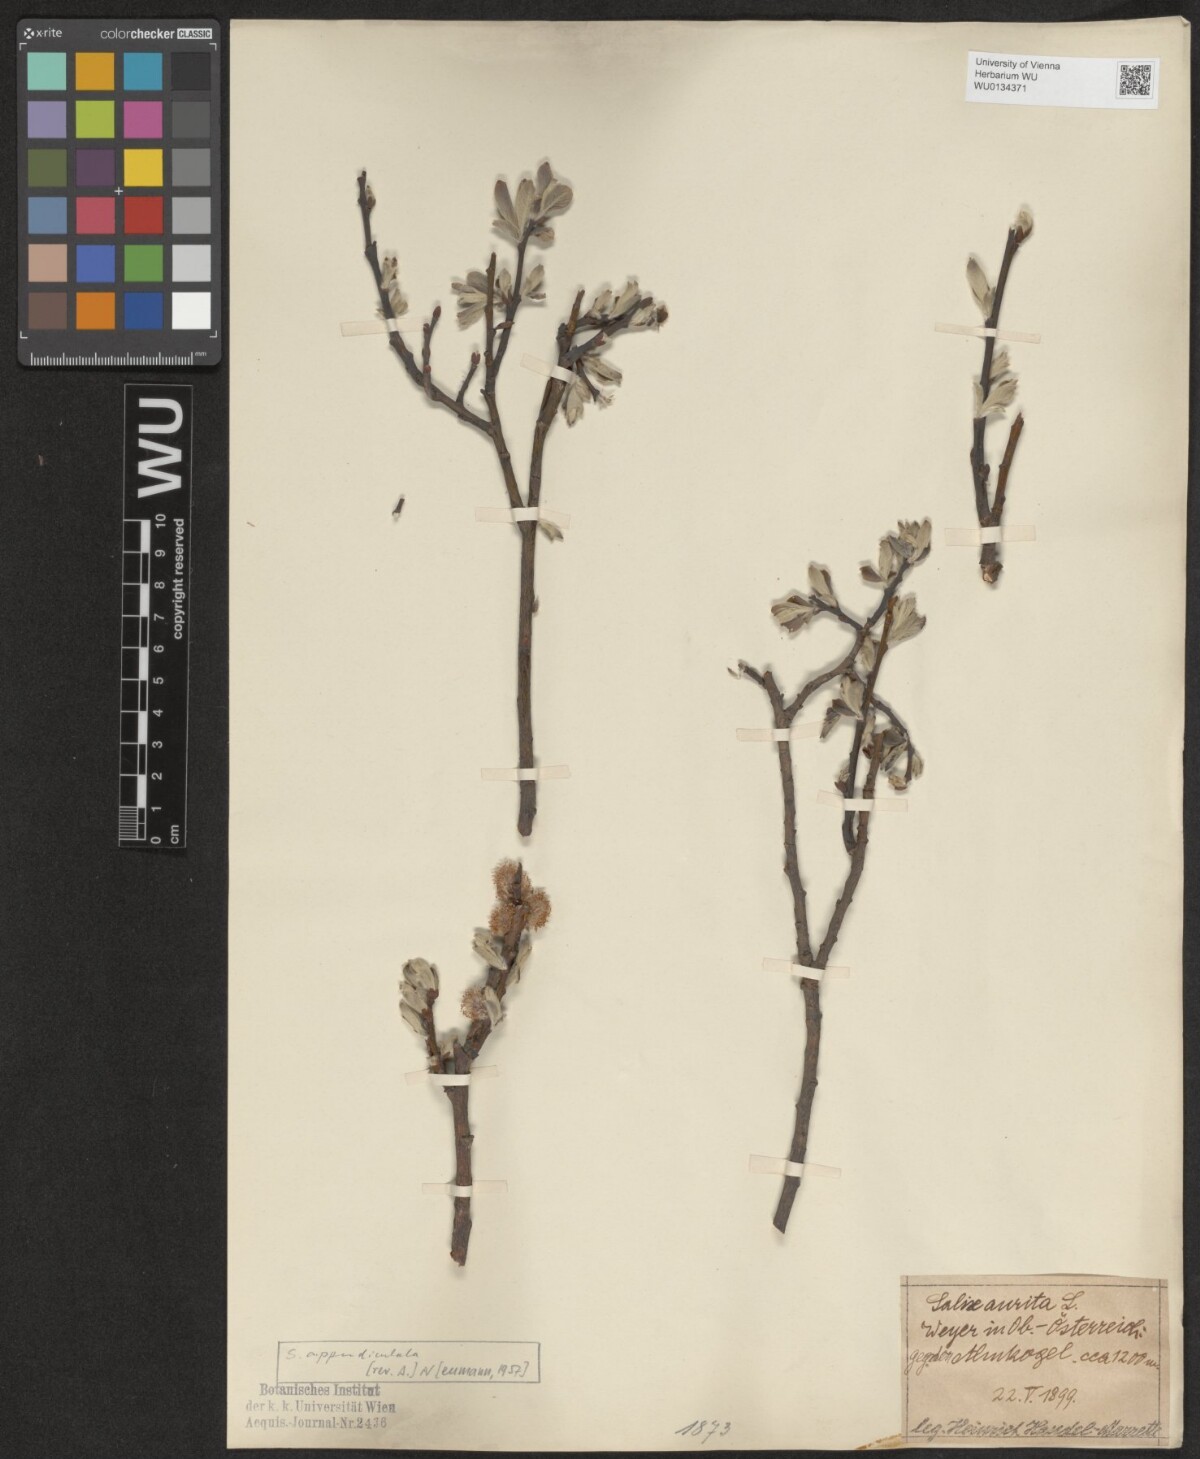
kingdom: Plantae
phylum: Tracheophyta
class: Magnoliopsida
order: Malpighiales
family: Salicaceae
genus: Salix
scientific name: Salix appendiculata
